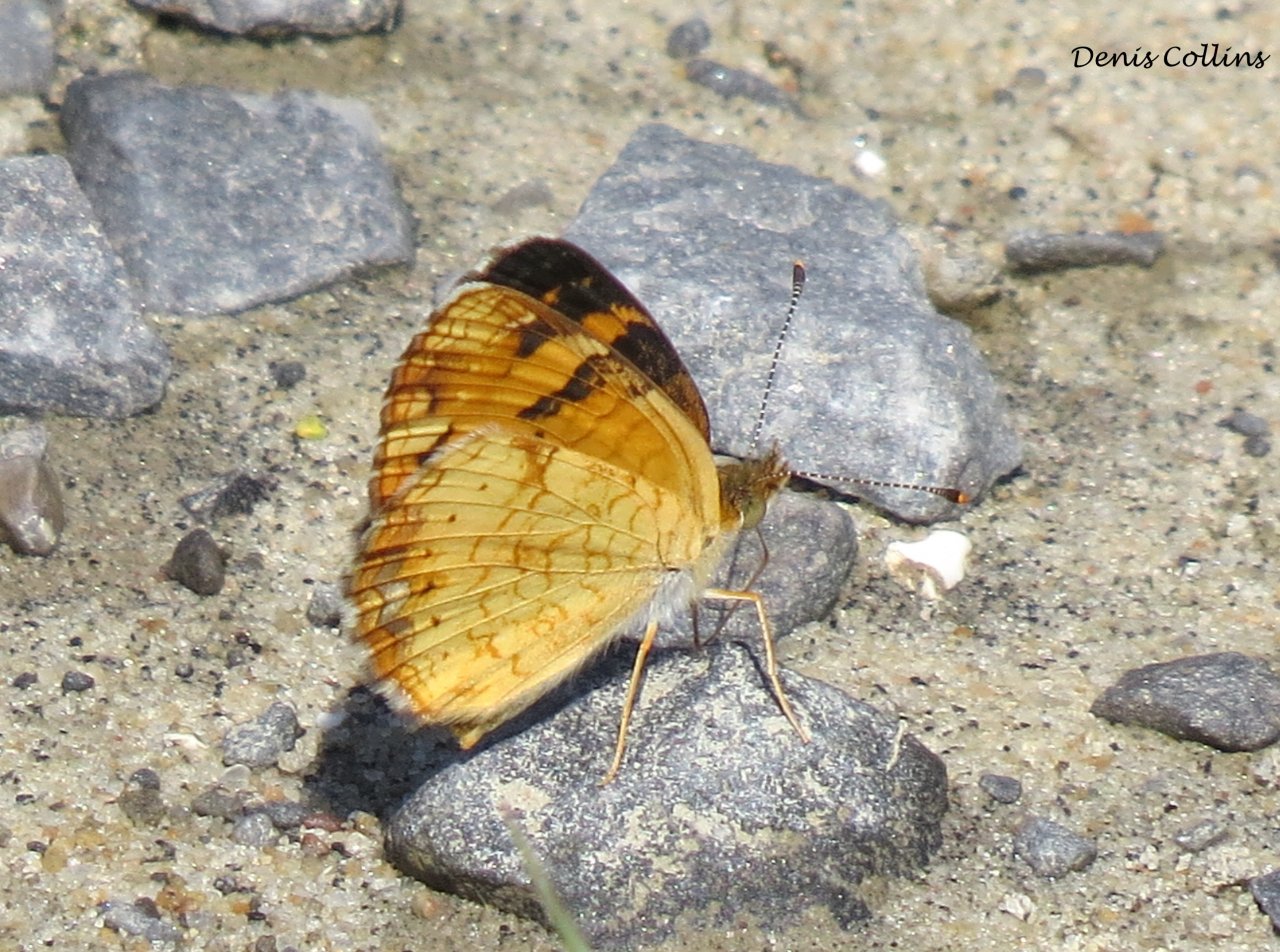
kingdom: Animalia
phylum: Arthropoda
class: Insecta
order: Lepidoptera
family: Nymphalidae
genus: Phyciodes
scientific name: Phyciodes tharos
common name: Northern Crescent
